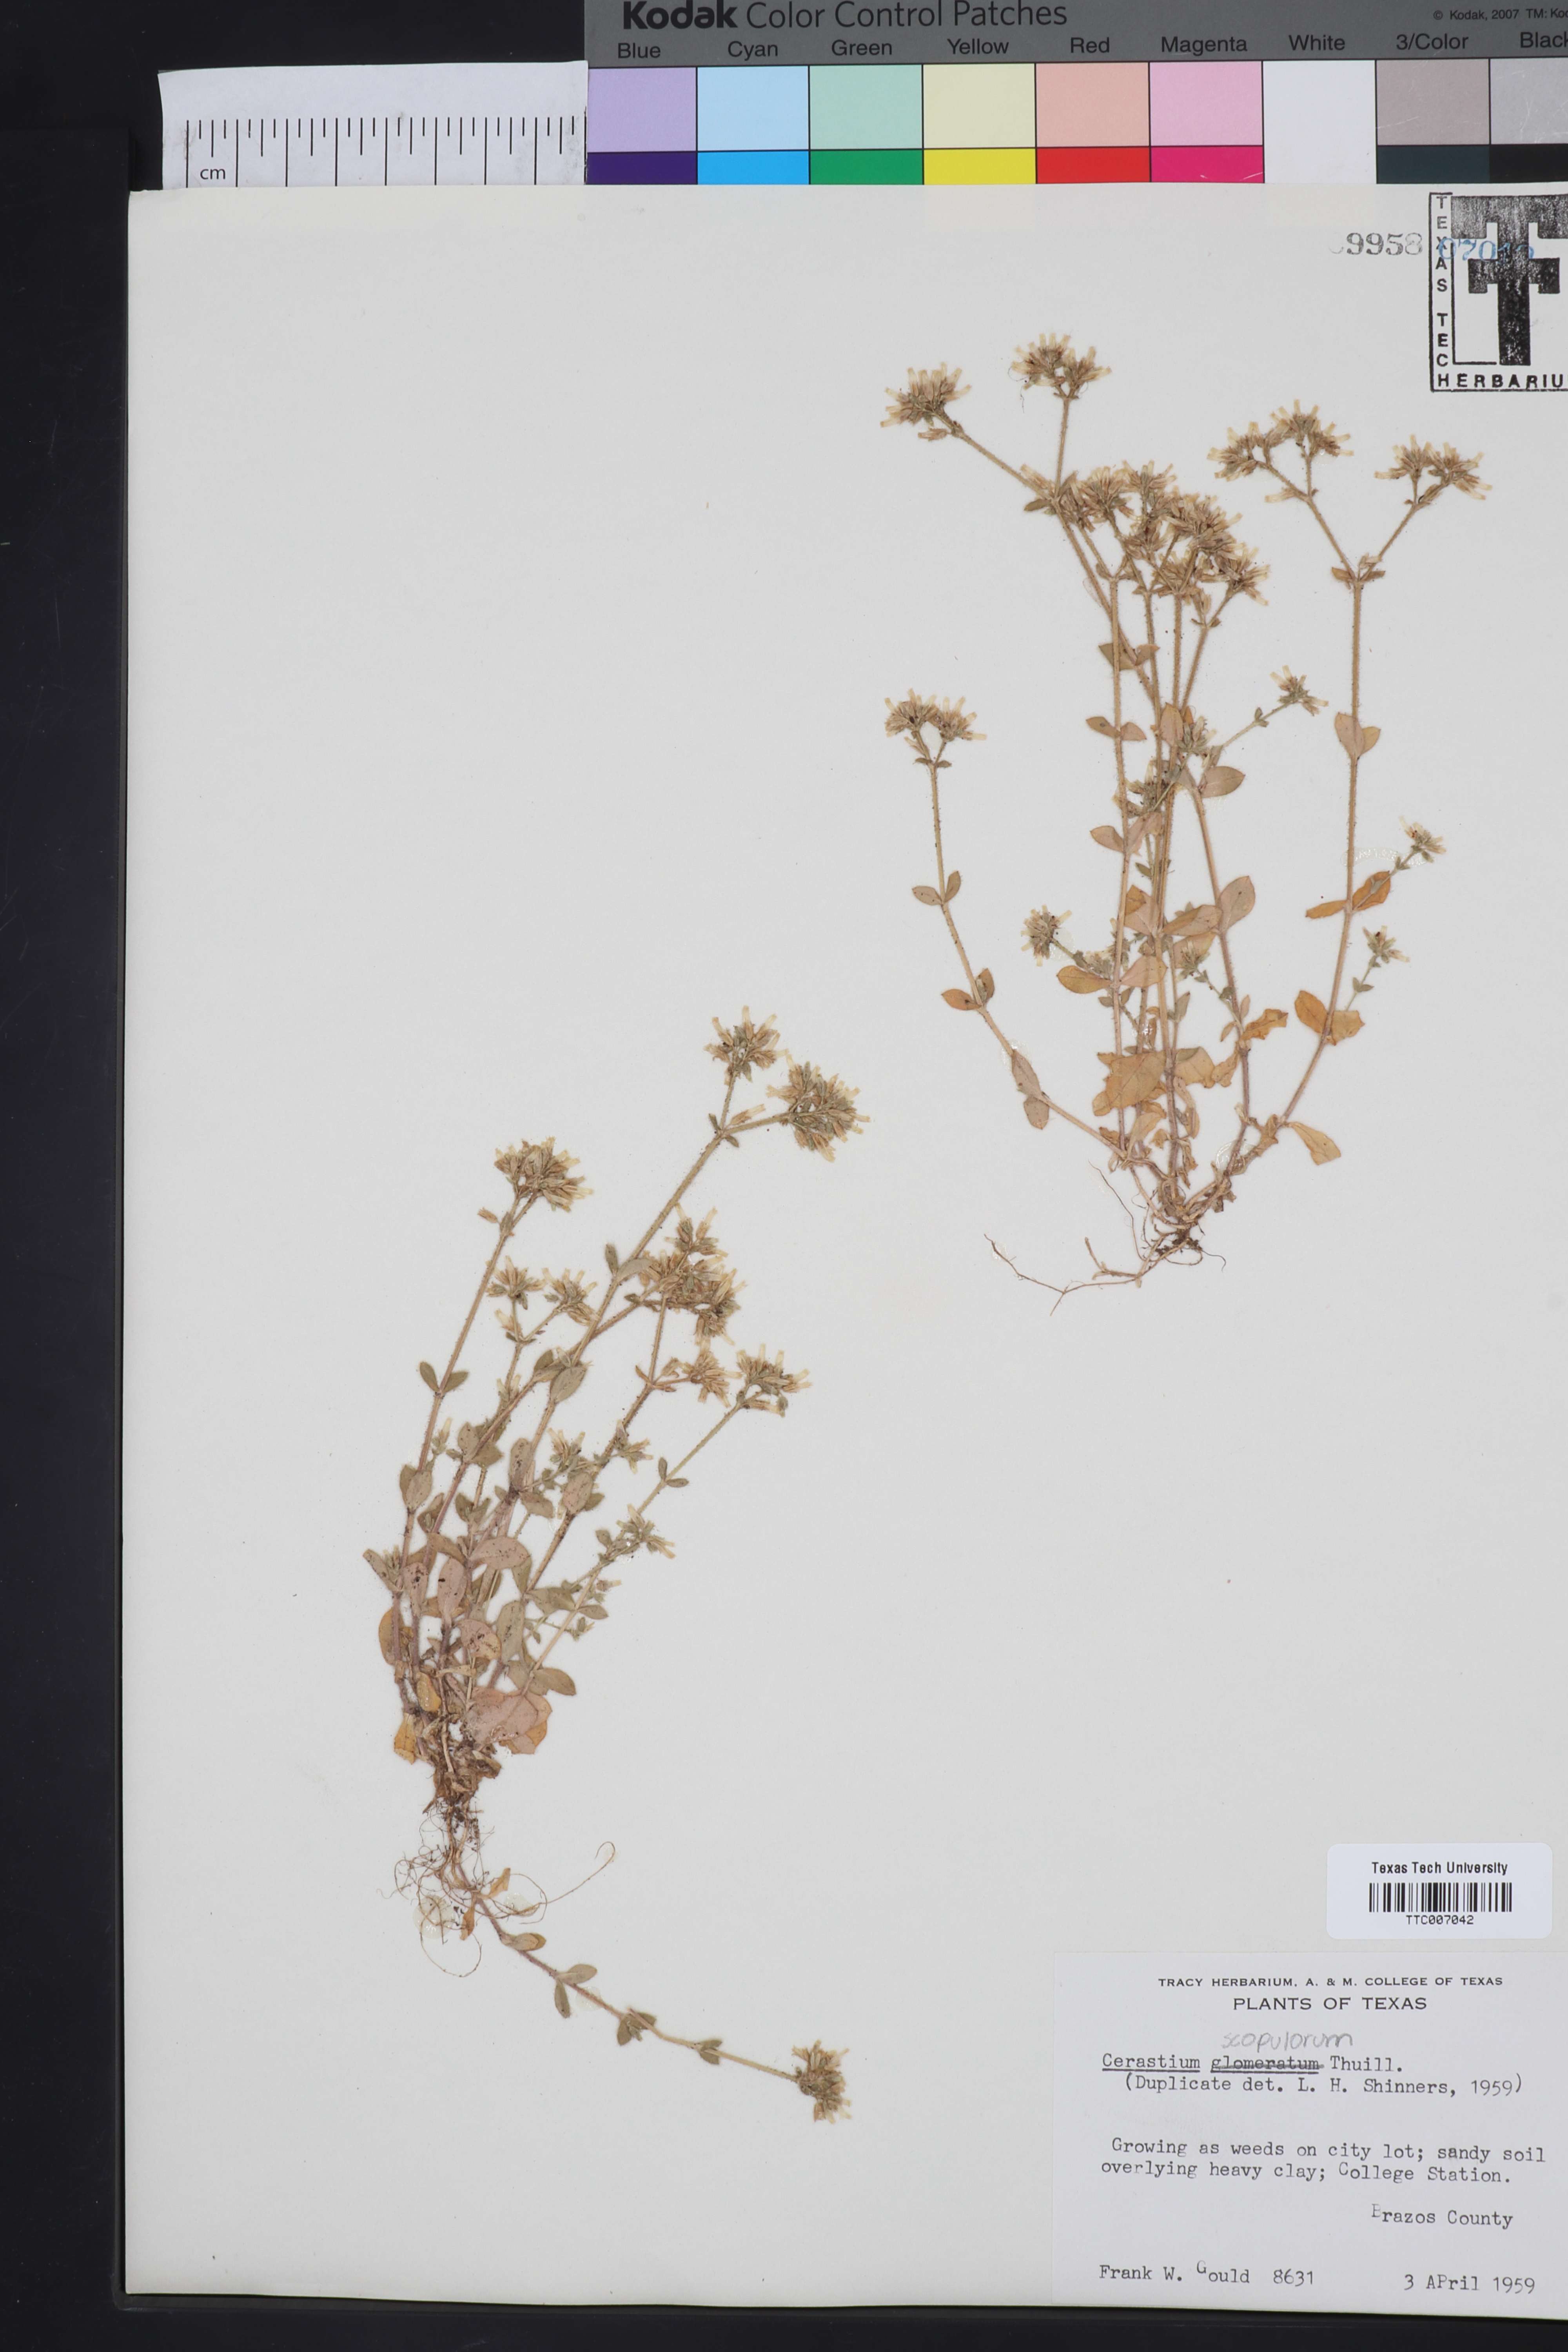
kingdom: Plantae
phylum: Tracheophyta
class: Magnoliopsida
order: Caryophyllales
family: Caryophyllaceae
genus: Cerastium
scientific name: Cerastium glomeratum
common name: Sticky chickweed
